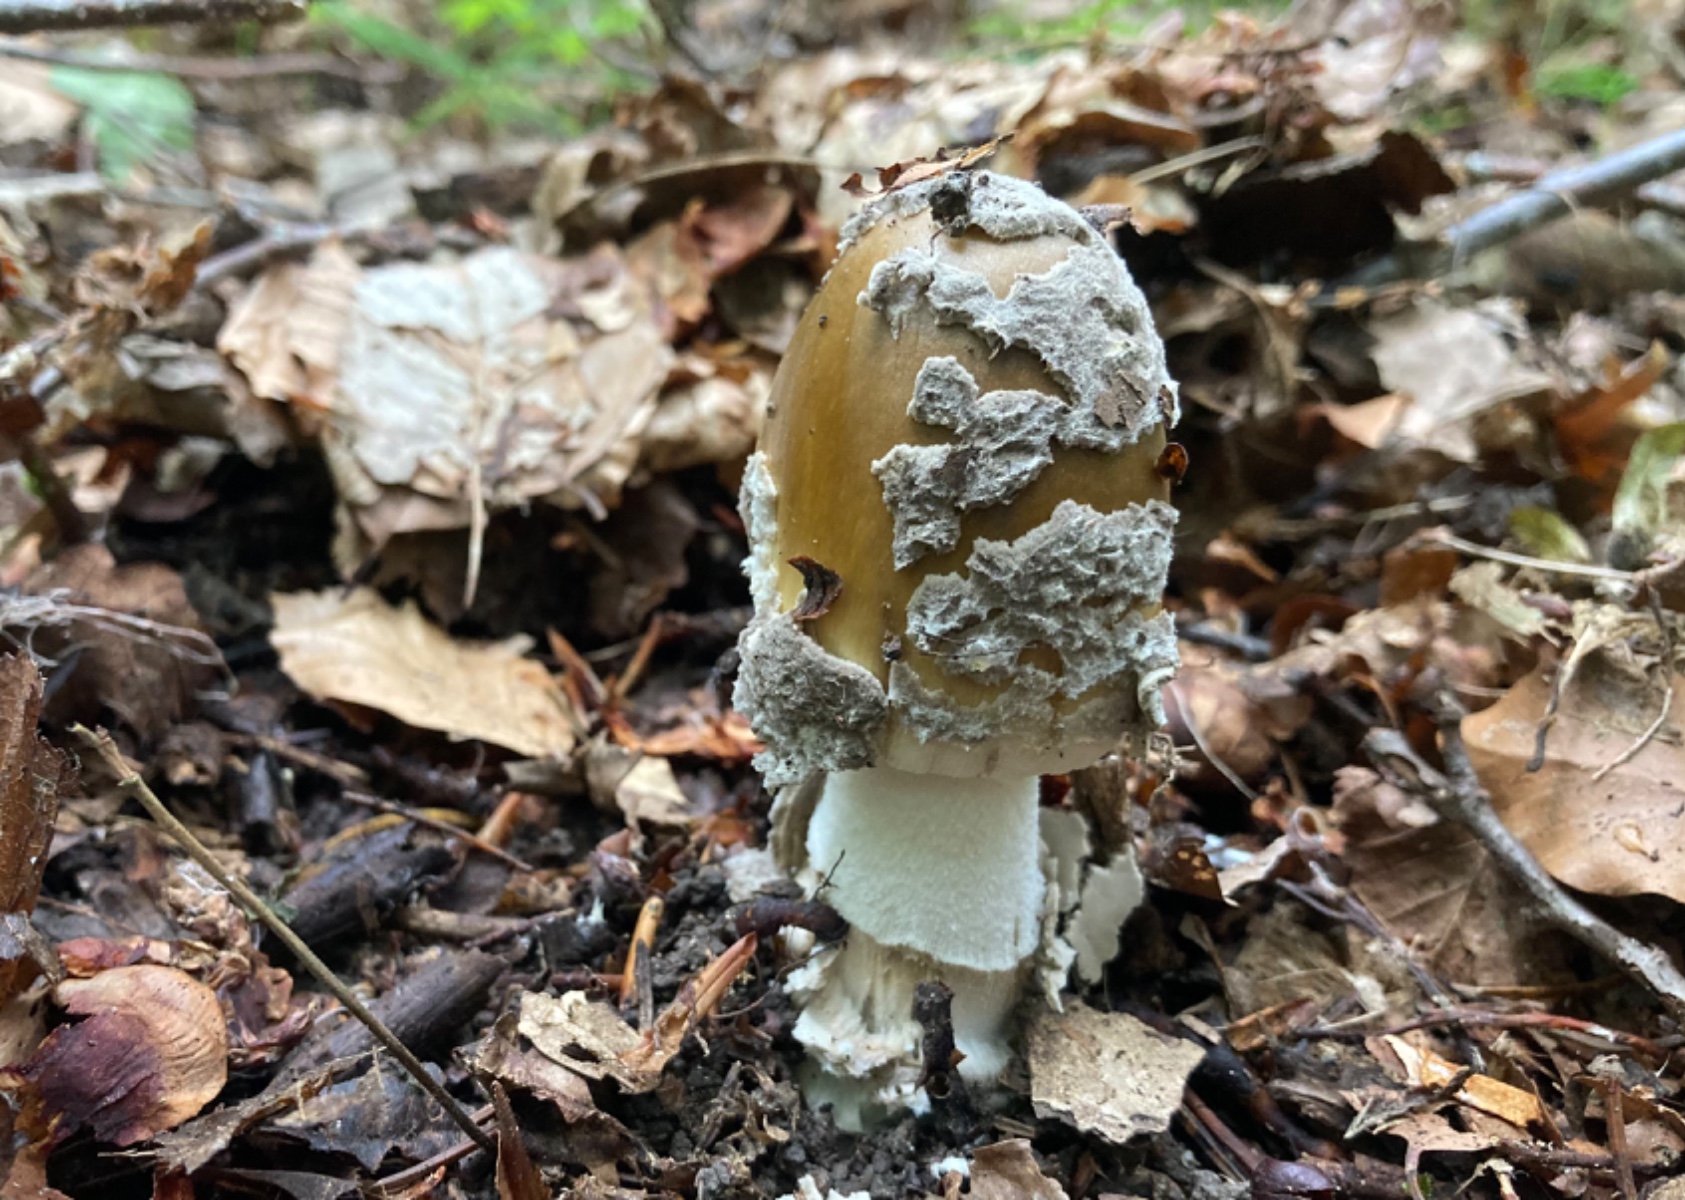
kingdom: Fungi
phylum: Basidiomycota
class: Agaricomycetes
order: Agaricales
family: Amanitaceae
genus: Amanita
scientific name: Amanita ceciliae
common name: stor kam-fluesvamp
